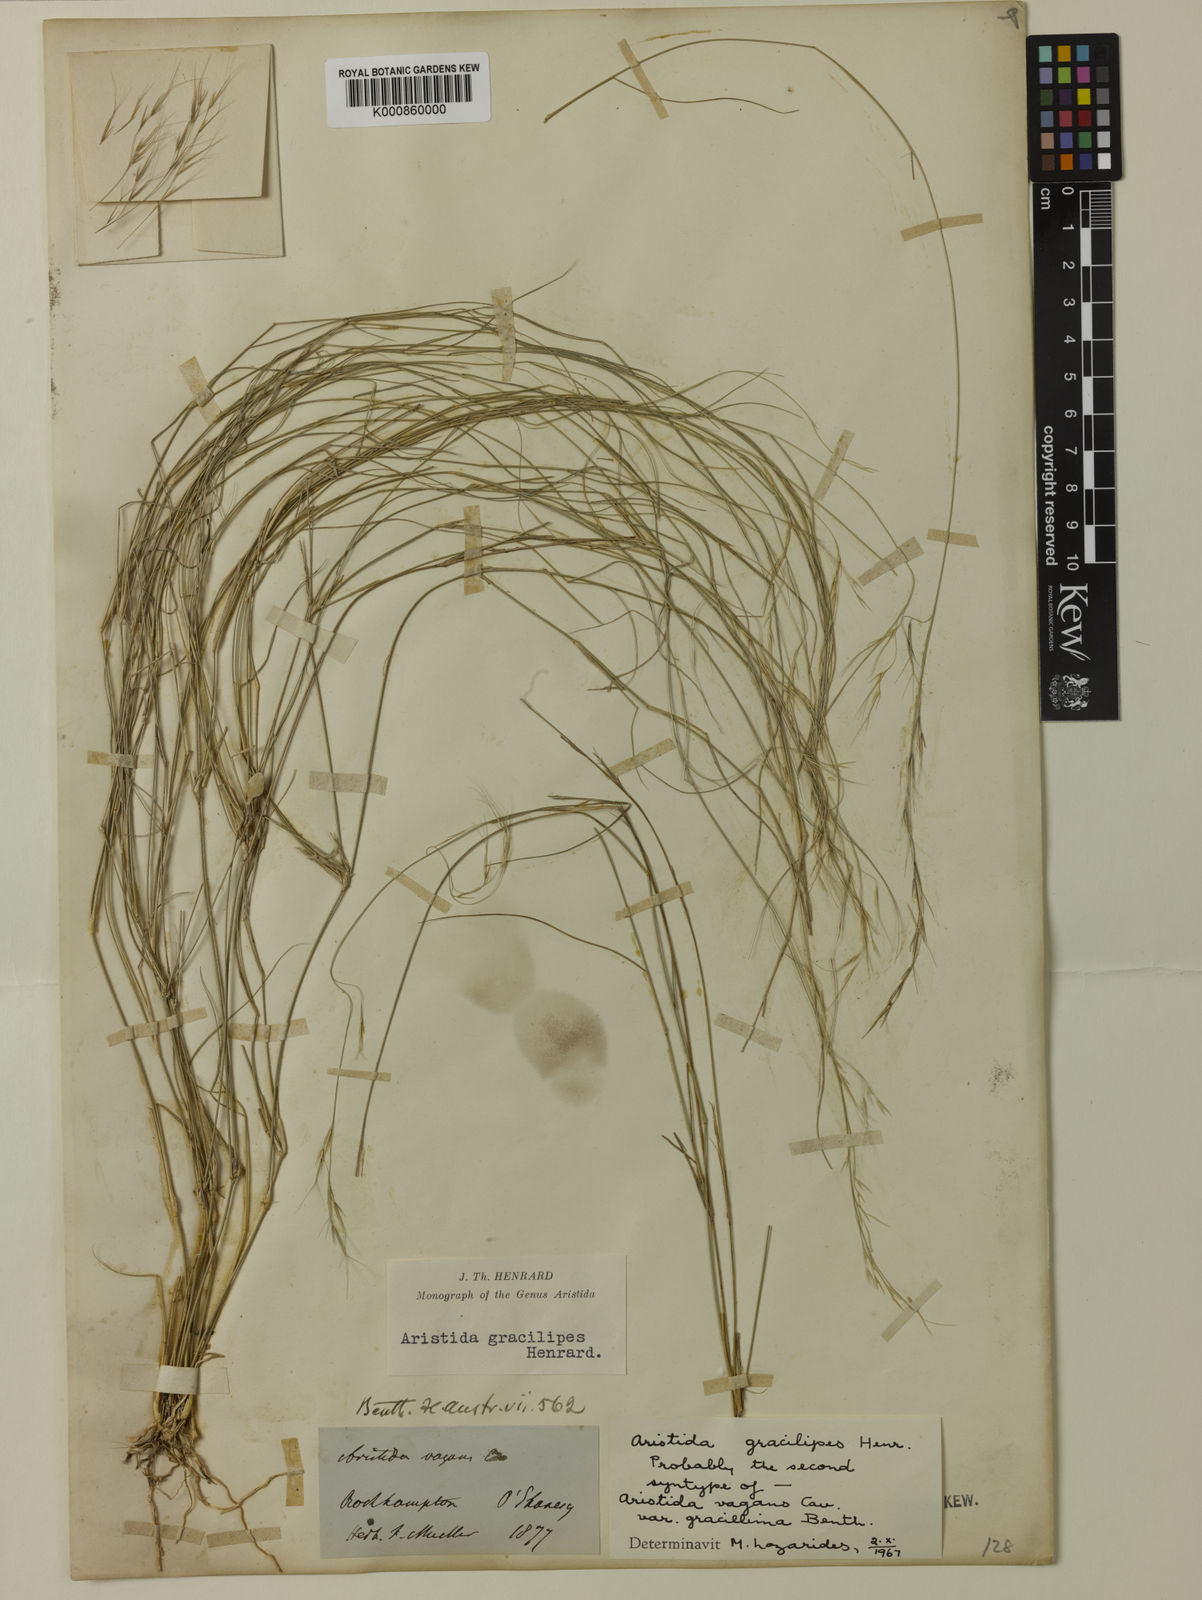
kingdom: Plantae
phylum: Tracheophyta
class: Liliopsida
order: Poales
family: Poaceae
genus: Aristida
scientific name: Aristida gracilipes
